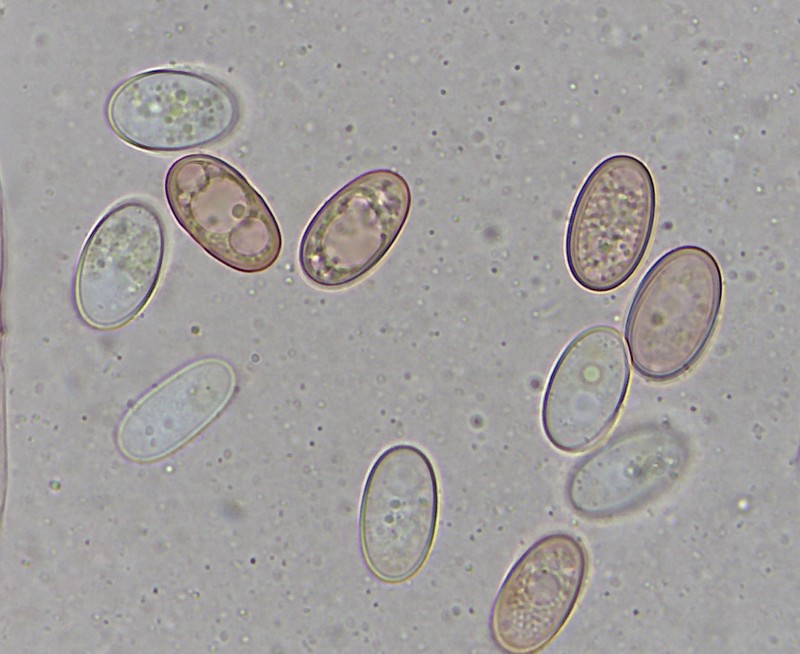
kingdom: Fungi
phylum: Ascomycota
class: Pezizomycetes
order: Pezizales
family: Pezizaceae
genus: Peziza
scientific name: Peziza
